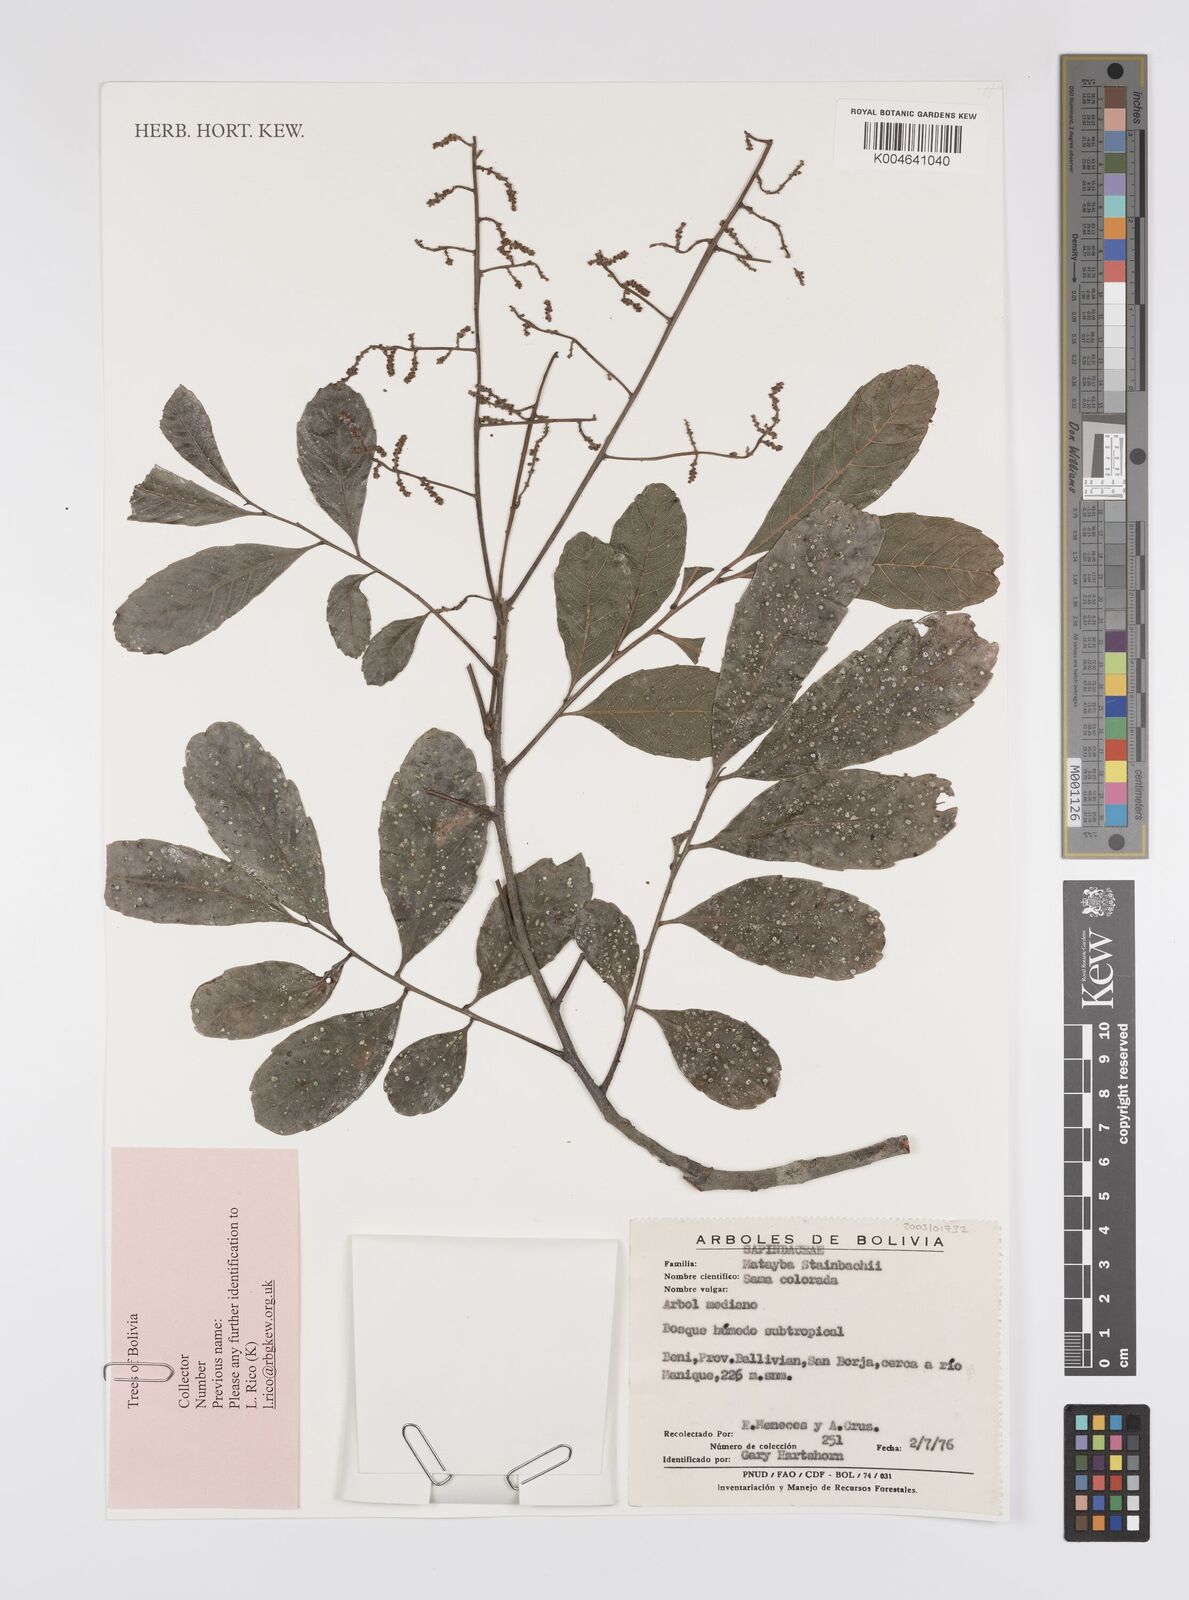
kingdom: Plantae
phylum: Tracheophyta
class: Magnoliopsida
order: Sapindales
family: Sapindaceae
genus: Matayba
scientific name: Matayba guianensis
